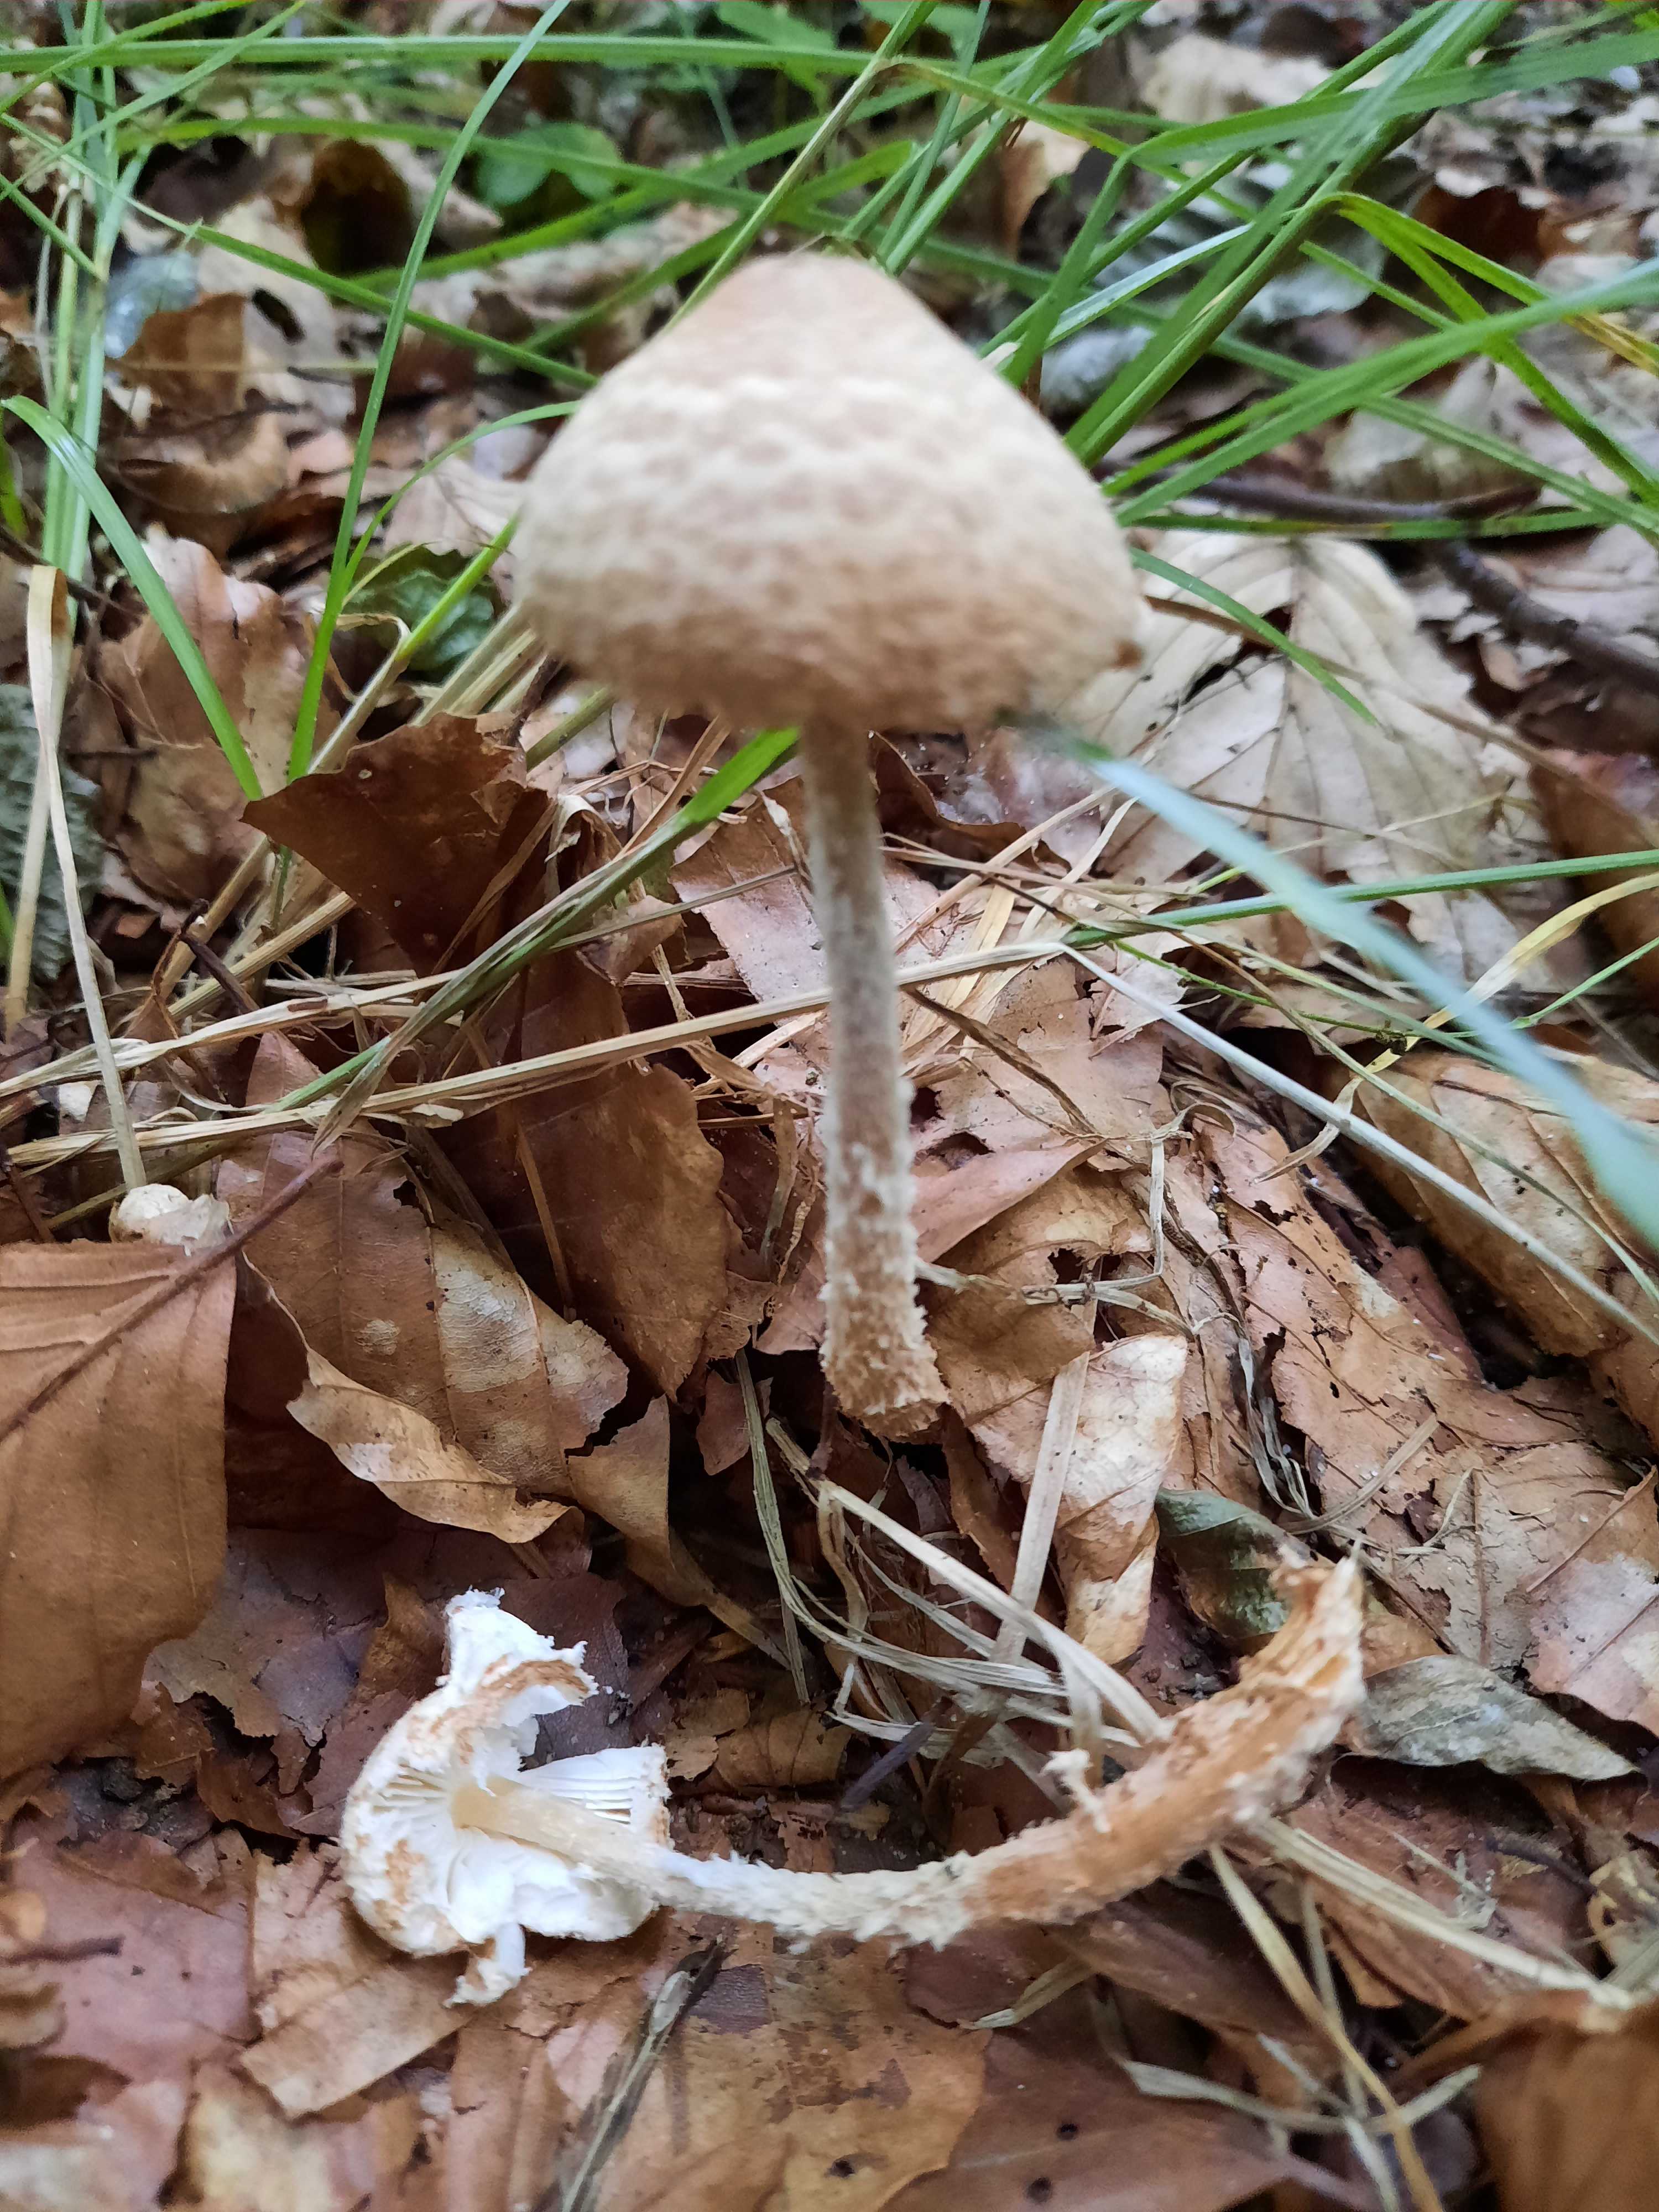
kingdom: Fungi
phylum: Basidiomycota
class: Agaricomycetes
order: Agaricales
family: Agaricaceae
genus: Lepiota
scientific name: Lepiota magnispora
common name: gulfnugget parasolhat
